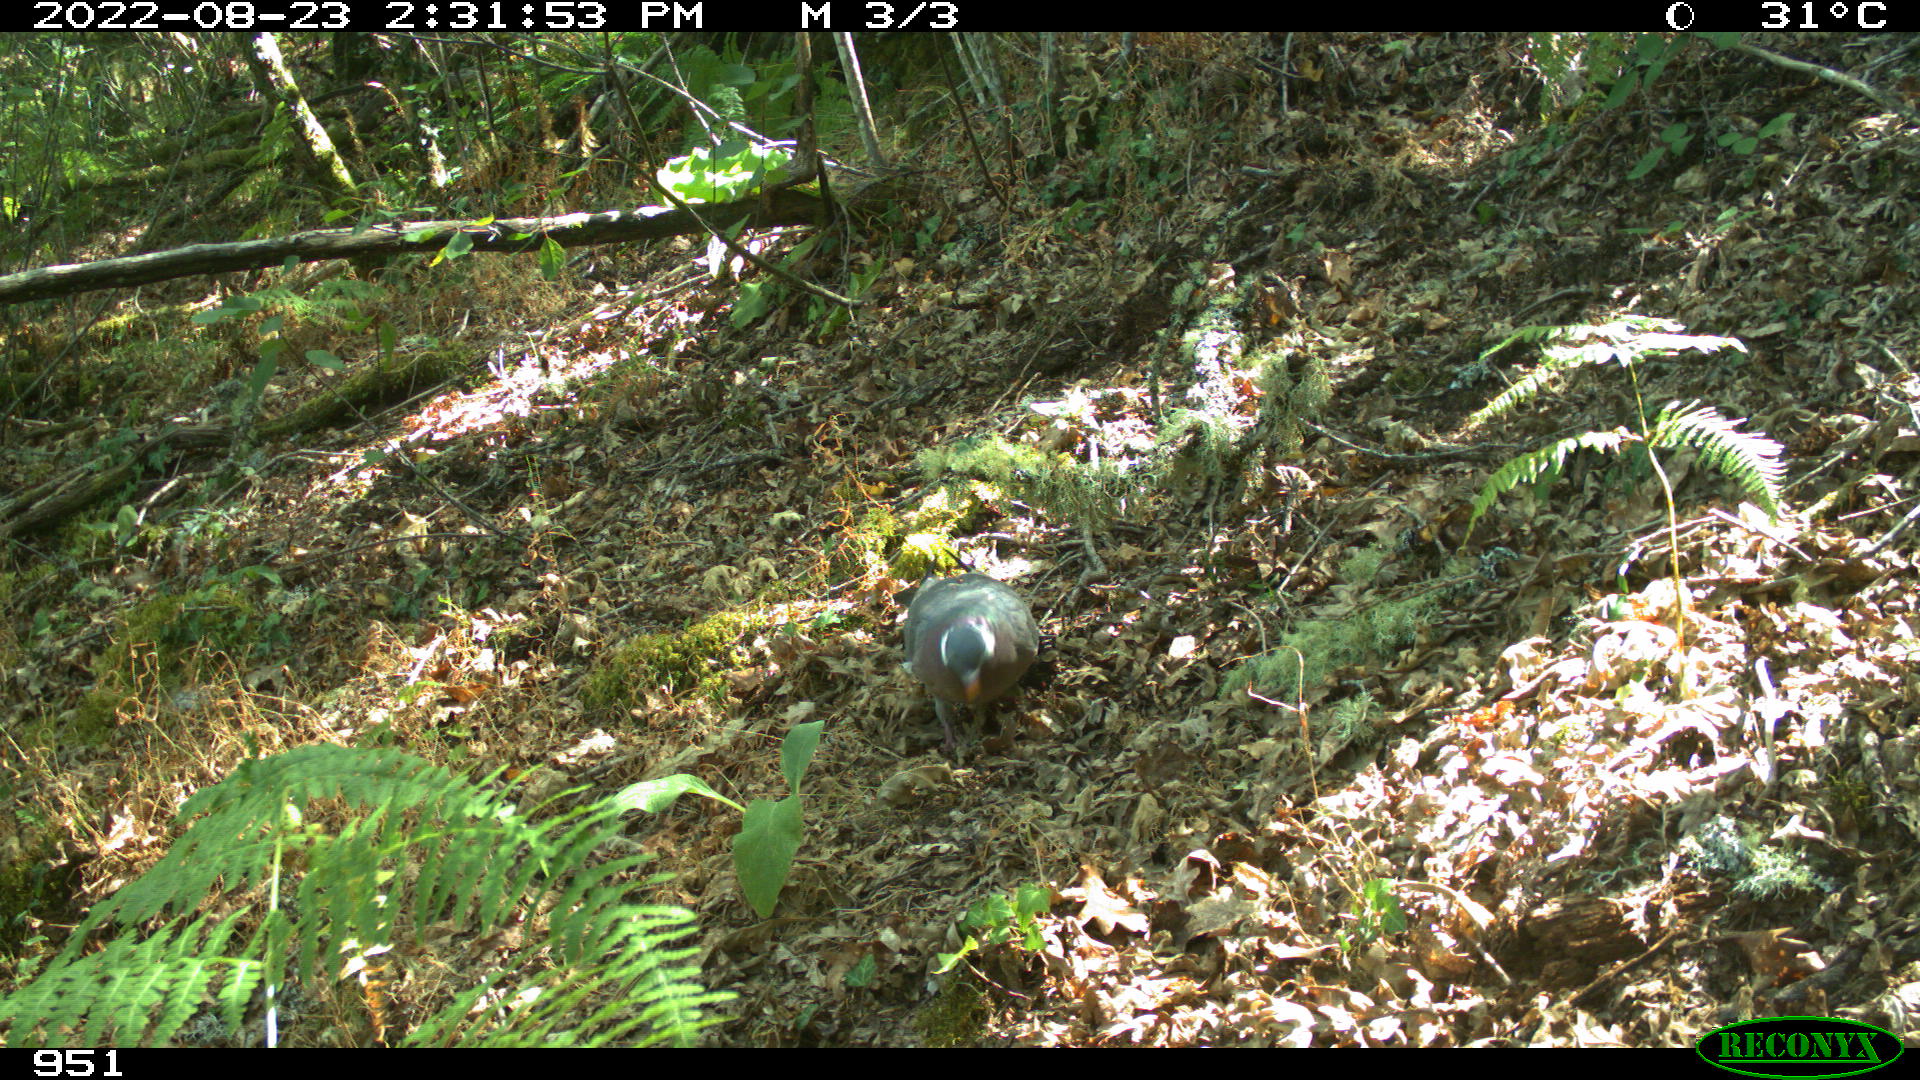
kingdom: Animalia
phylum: Chordata
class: Aves
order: Columbiformes
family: Columbidae
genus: Columba
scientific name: Columba palumbus
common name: Common wood pigeon
